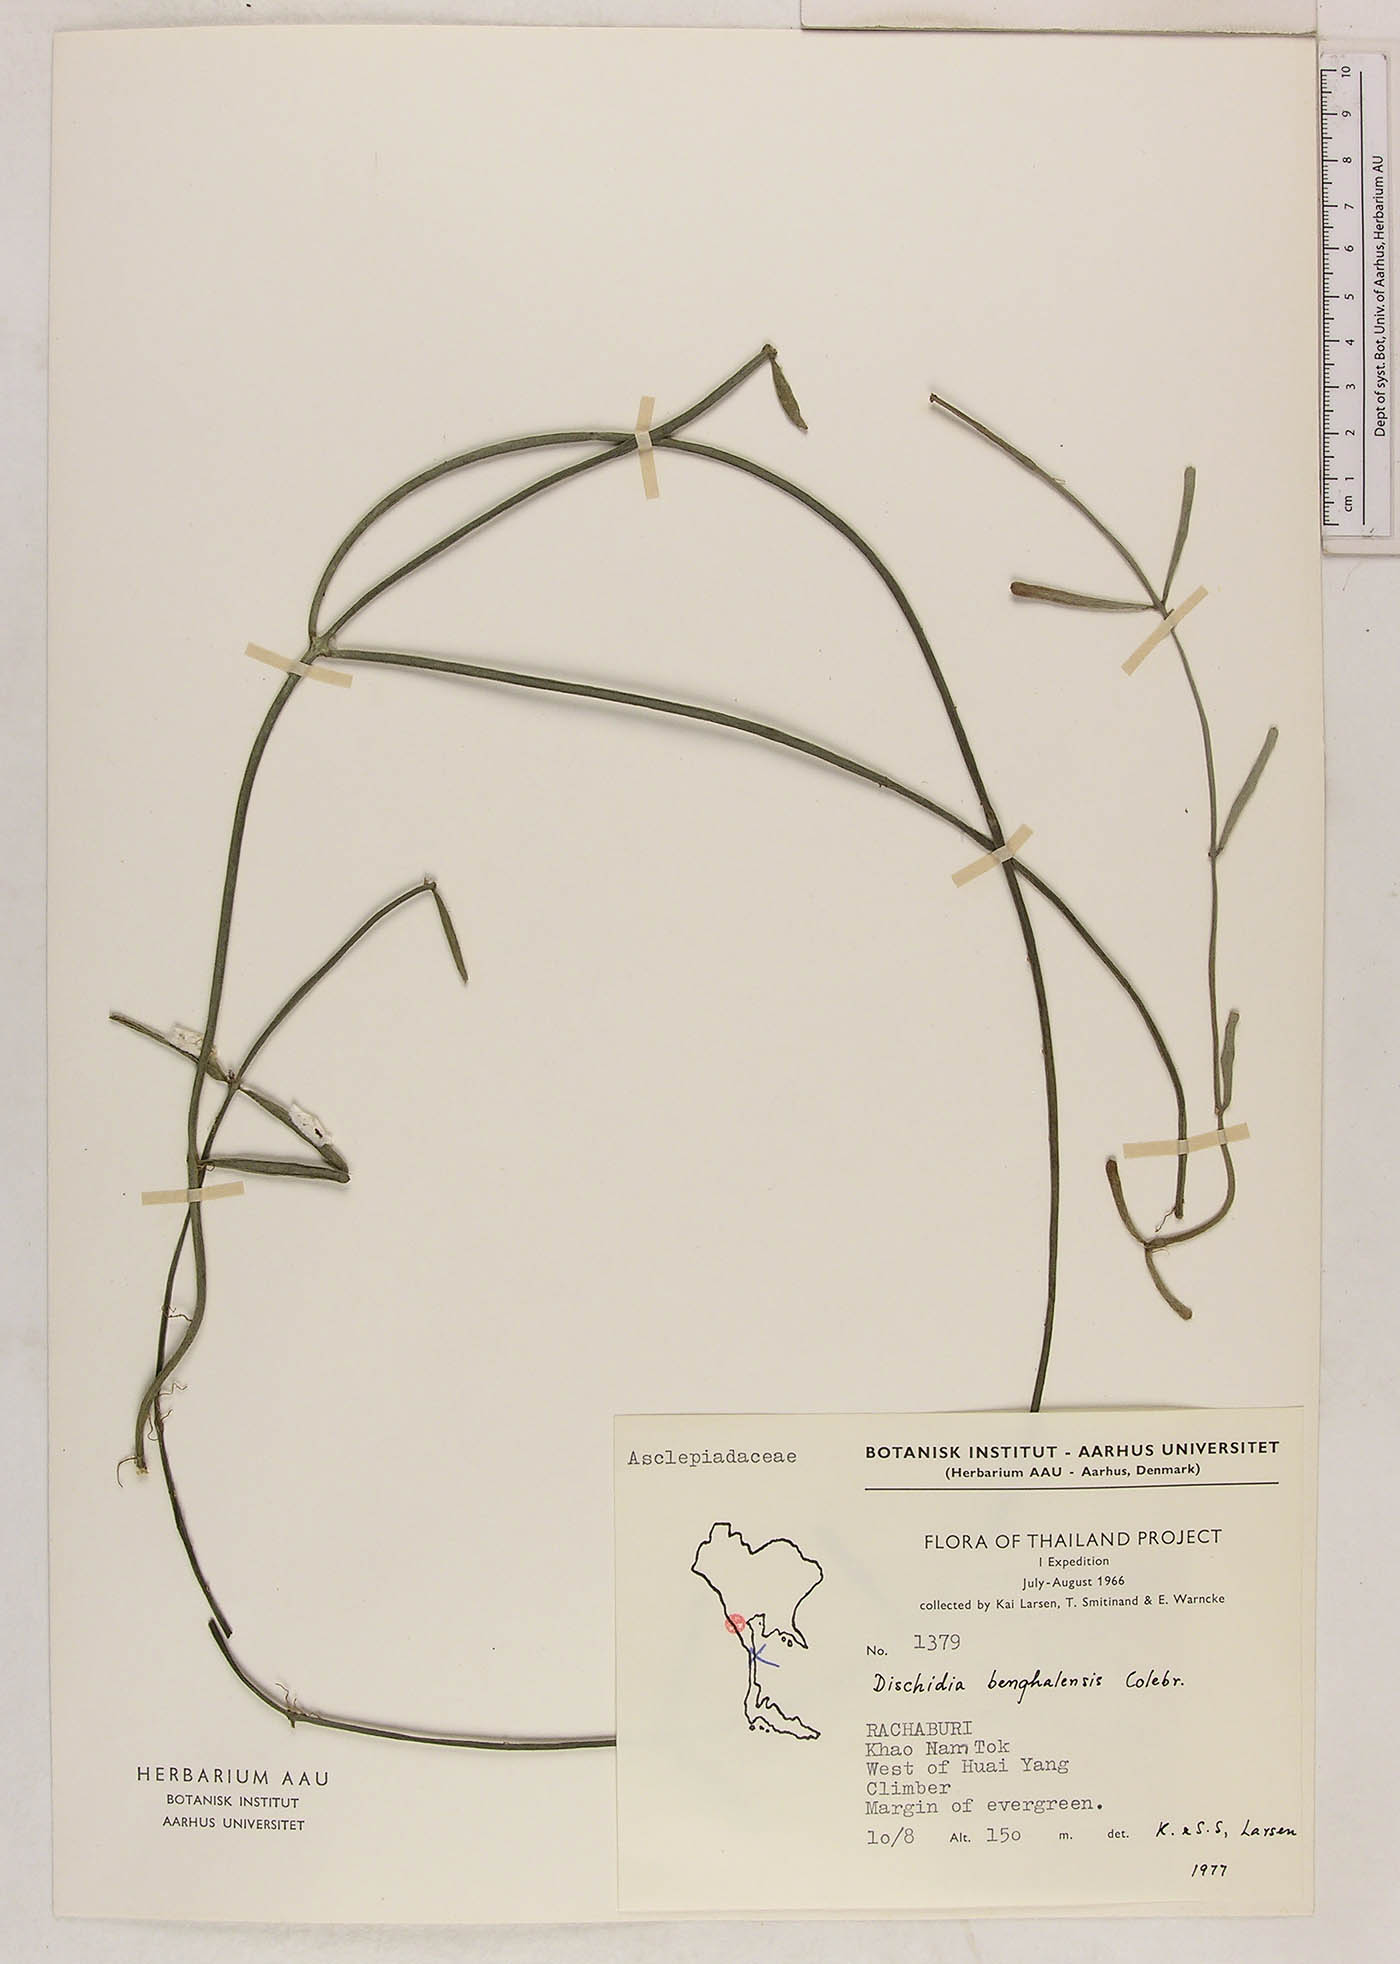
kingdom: Plantae
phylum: Tracheophyta
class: Magnoliopsida
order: Gentianales
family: Apocynaceae
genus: Dischidia
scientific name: Dischidia bengalensis
